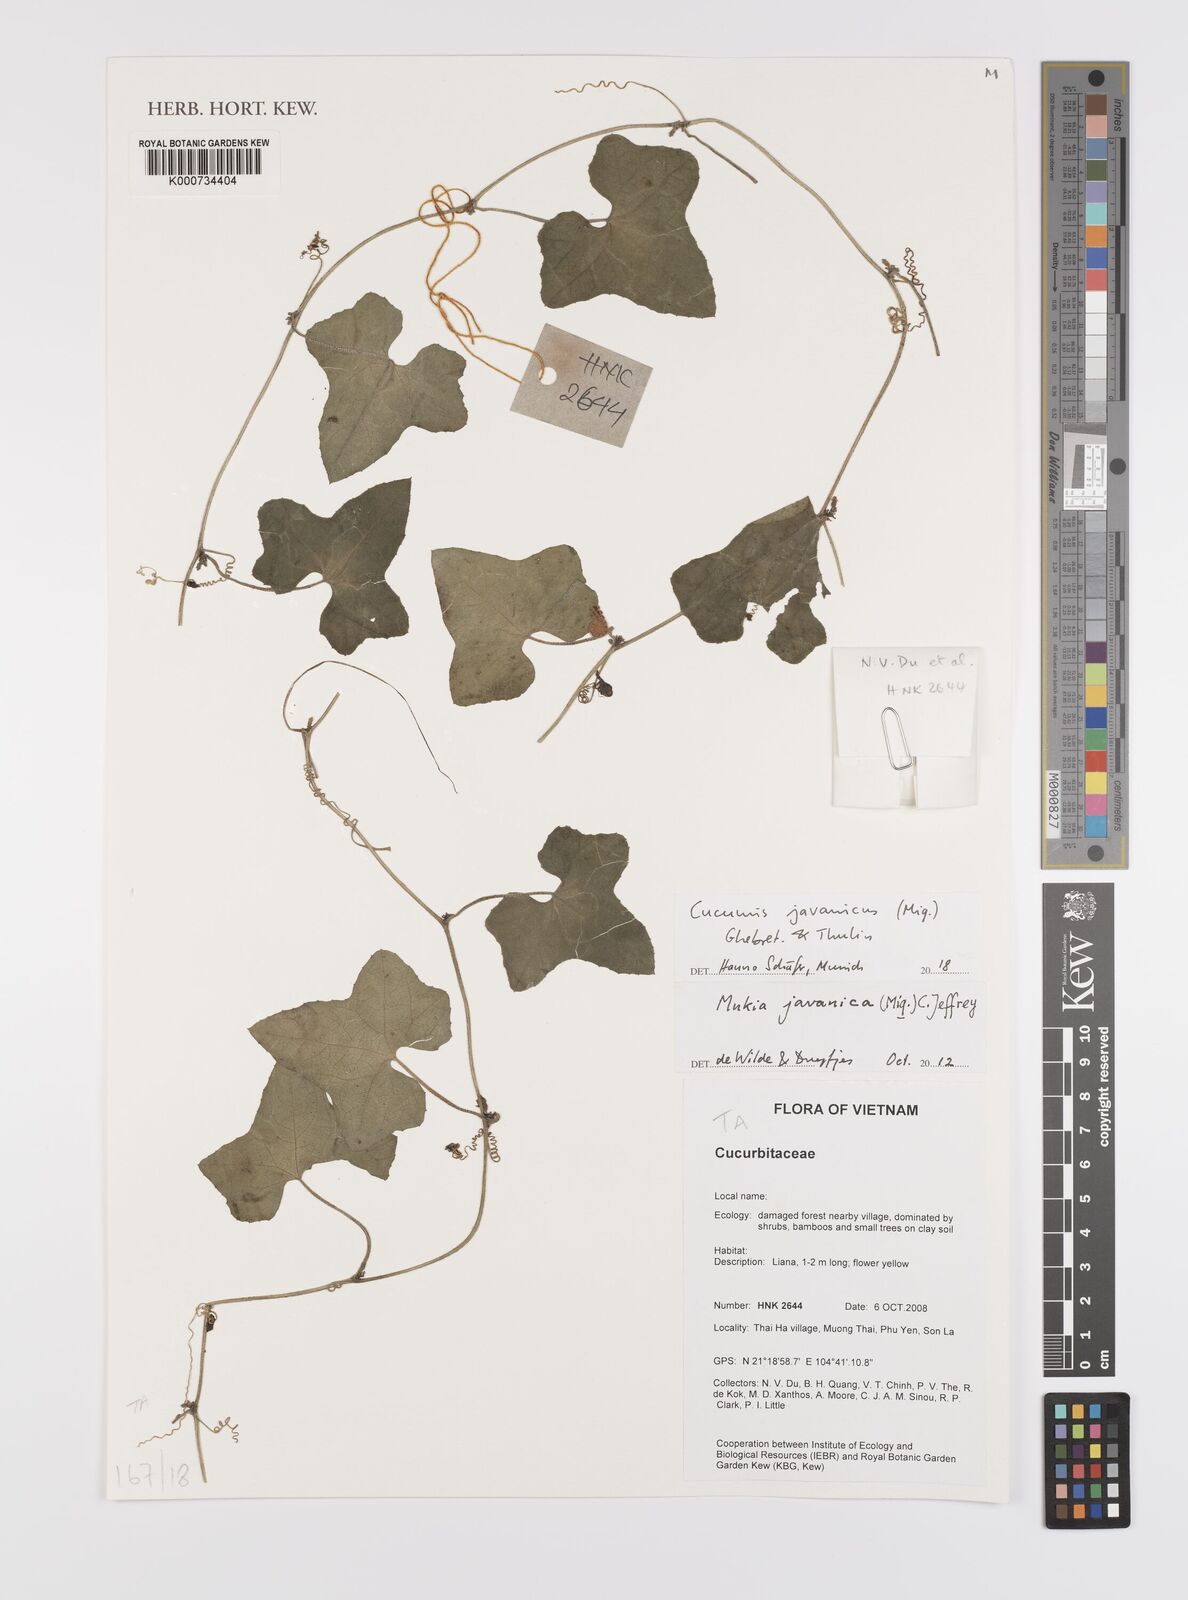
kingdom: Plantae
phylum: Tracheophyta
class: Magnoliopsida
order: Cucurbitales
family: Cucurbitaceae
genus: Cucumis
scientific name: Cucumis javanicus
